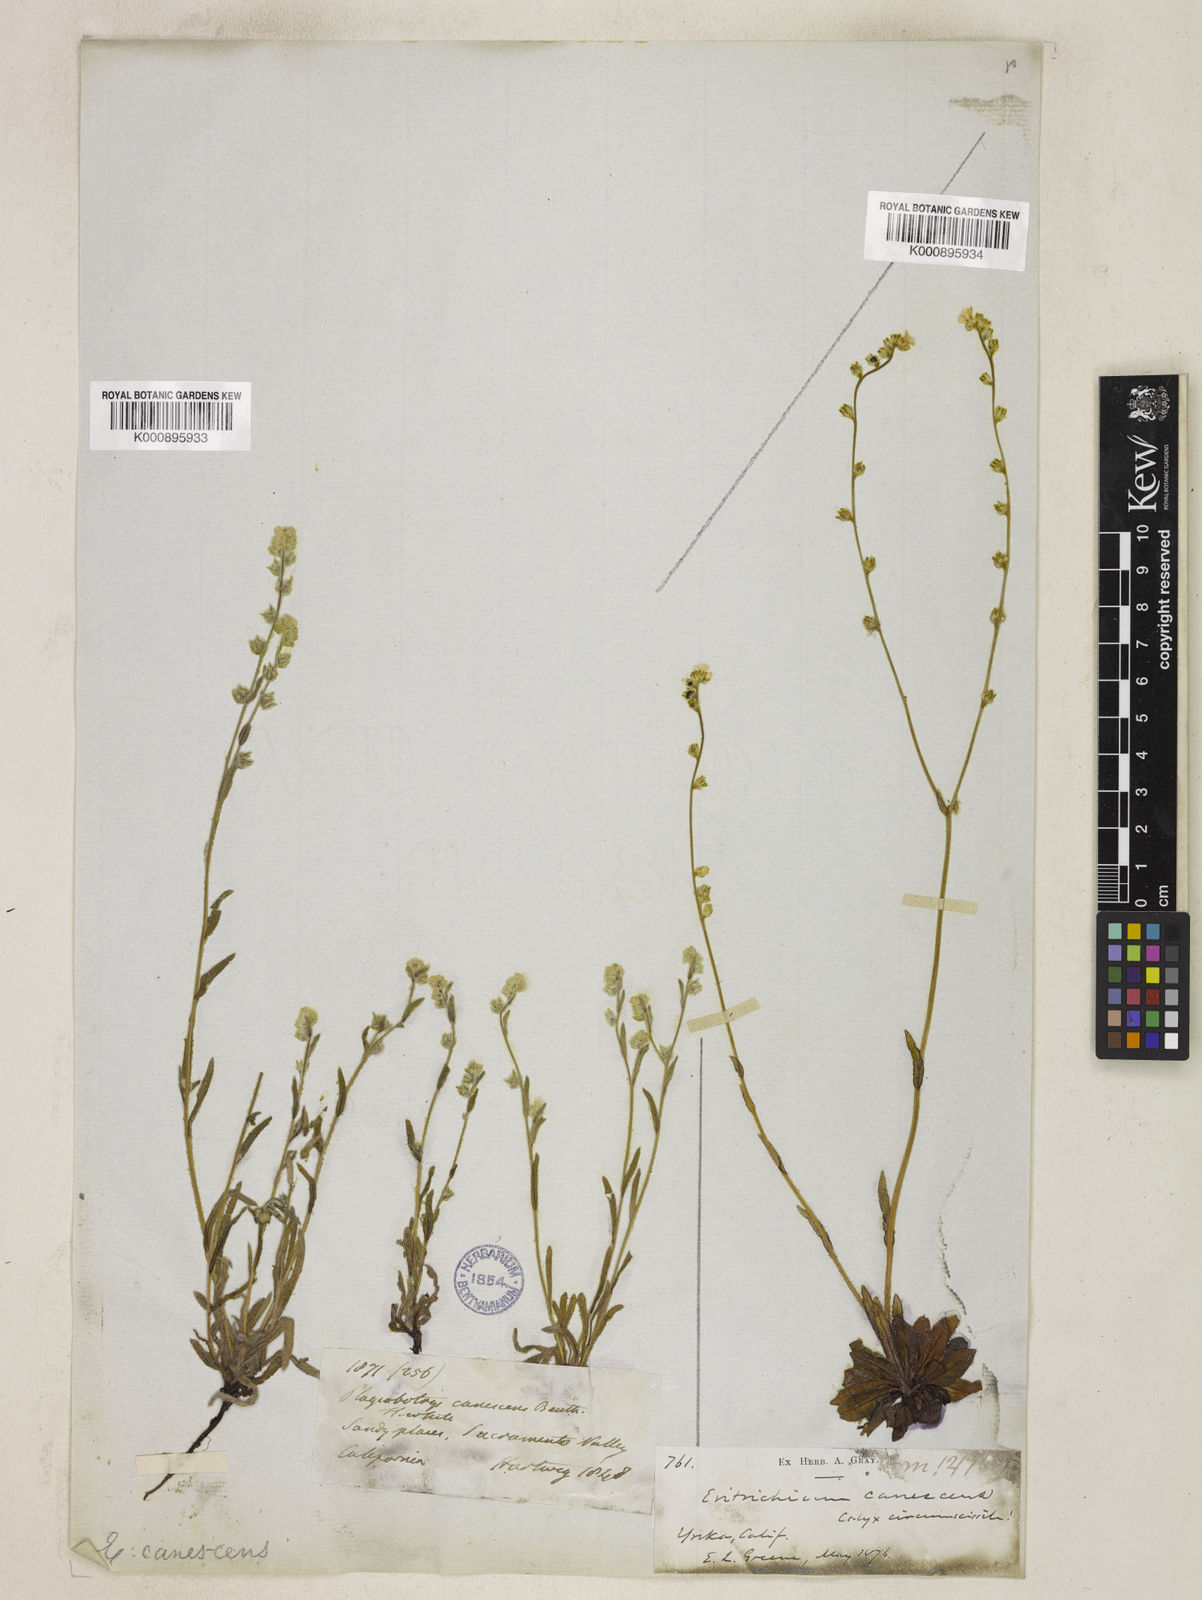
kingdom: Plantae
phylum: Tracheophyta
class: Magnoliopsida
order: Boraginales
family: Boraginaceae
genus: Plagiobothrys
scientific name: Plagiobothrys canescens
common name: Valley popcorn-flower
